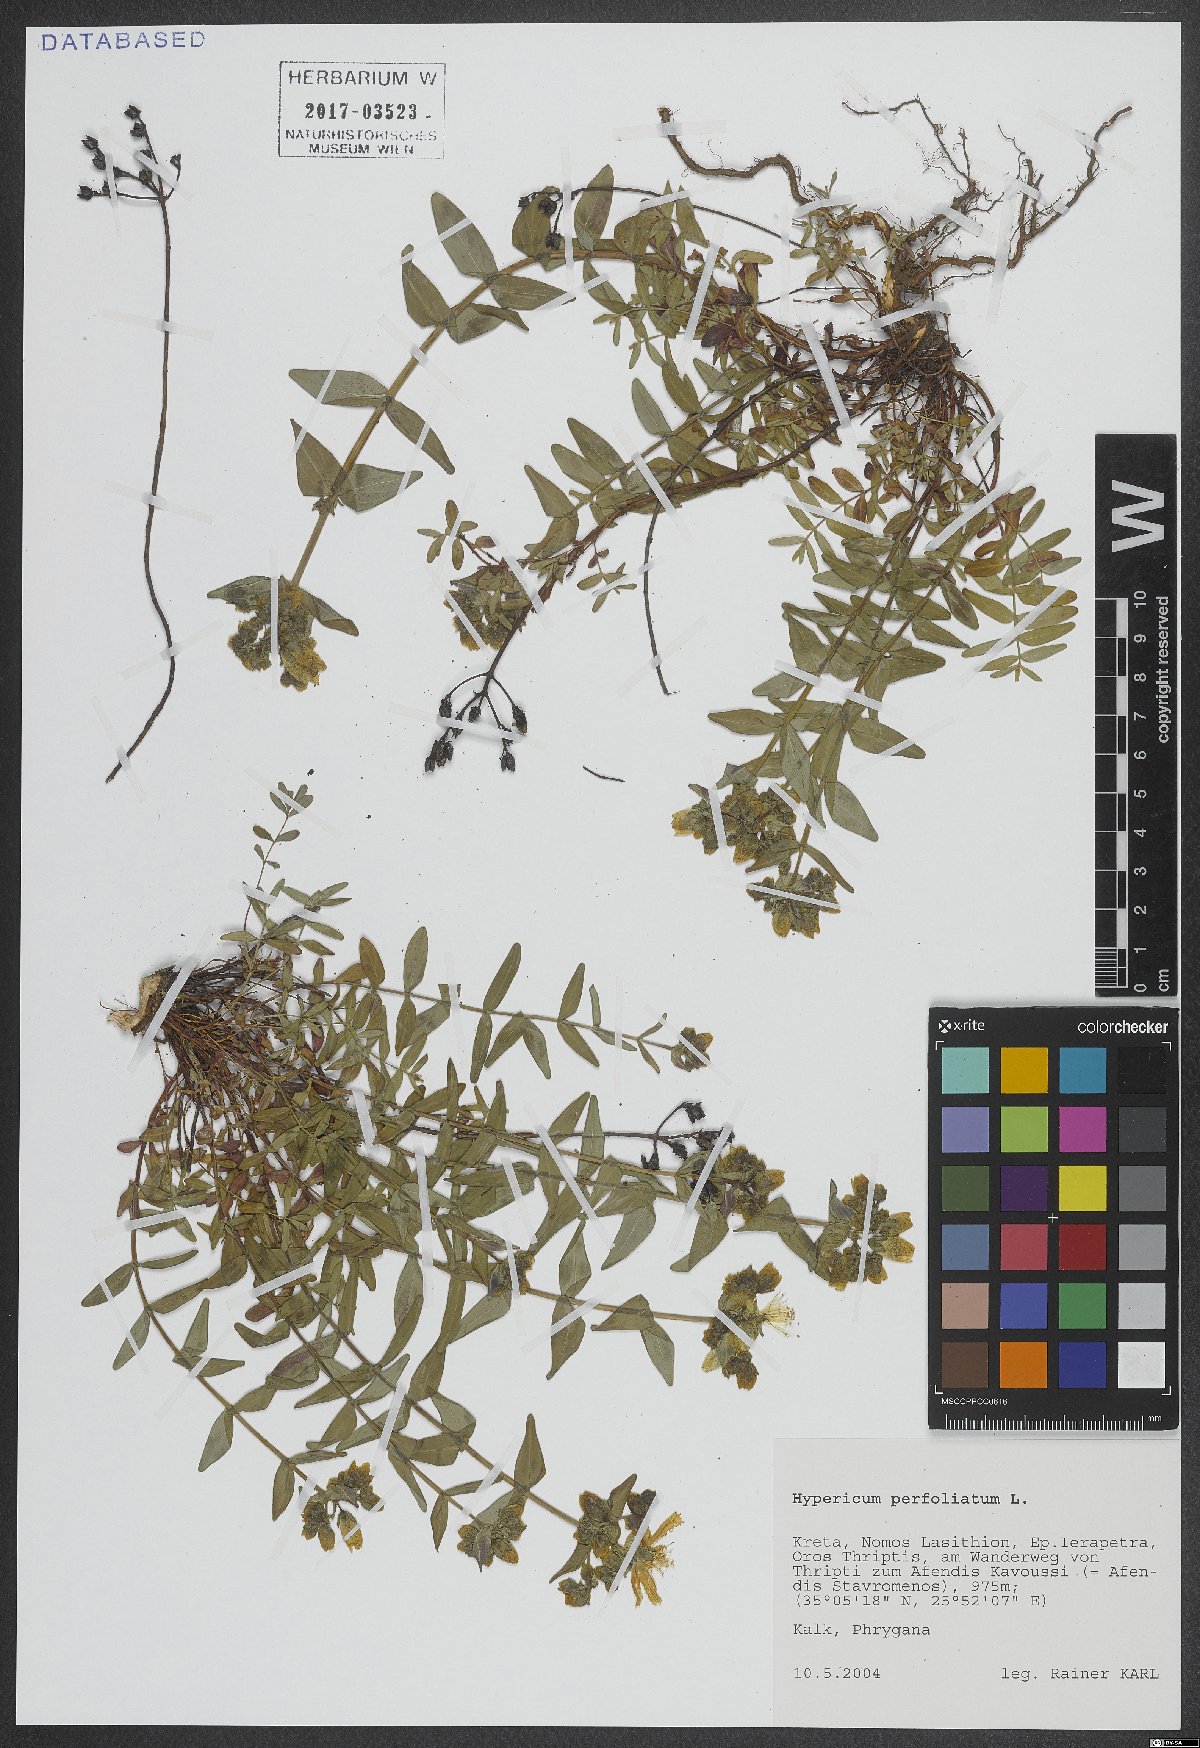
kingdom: Plantae
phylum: Tracheophyta
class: Magnoliopsida
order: Malpighiales
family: Hypericaceae
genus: Hypericum
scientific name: Hypericum perfoliatum
